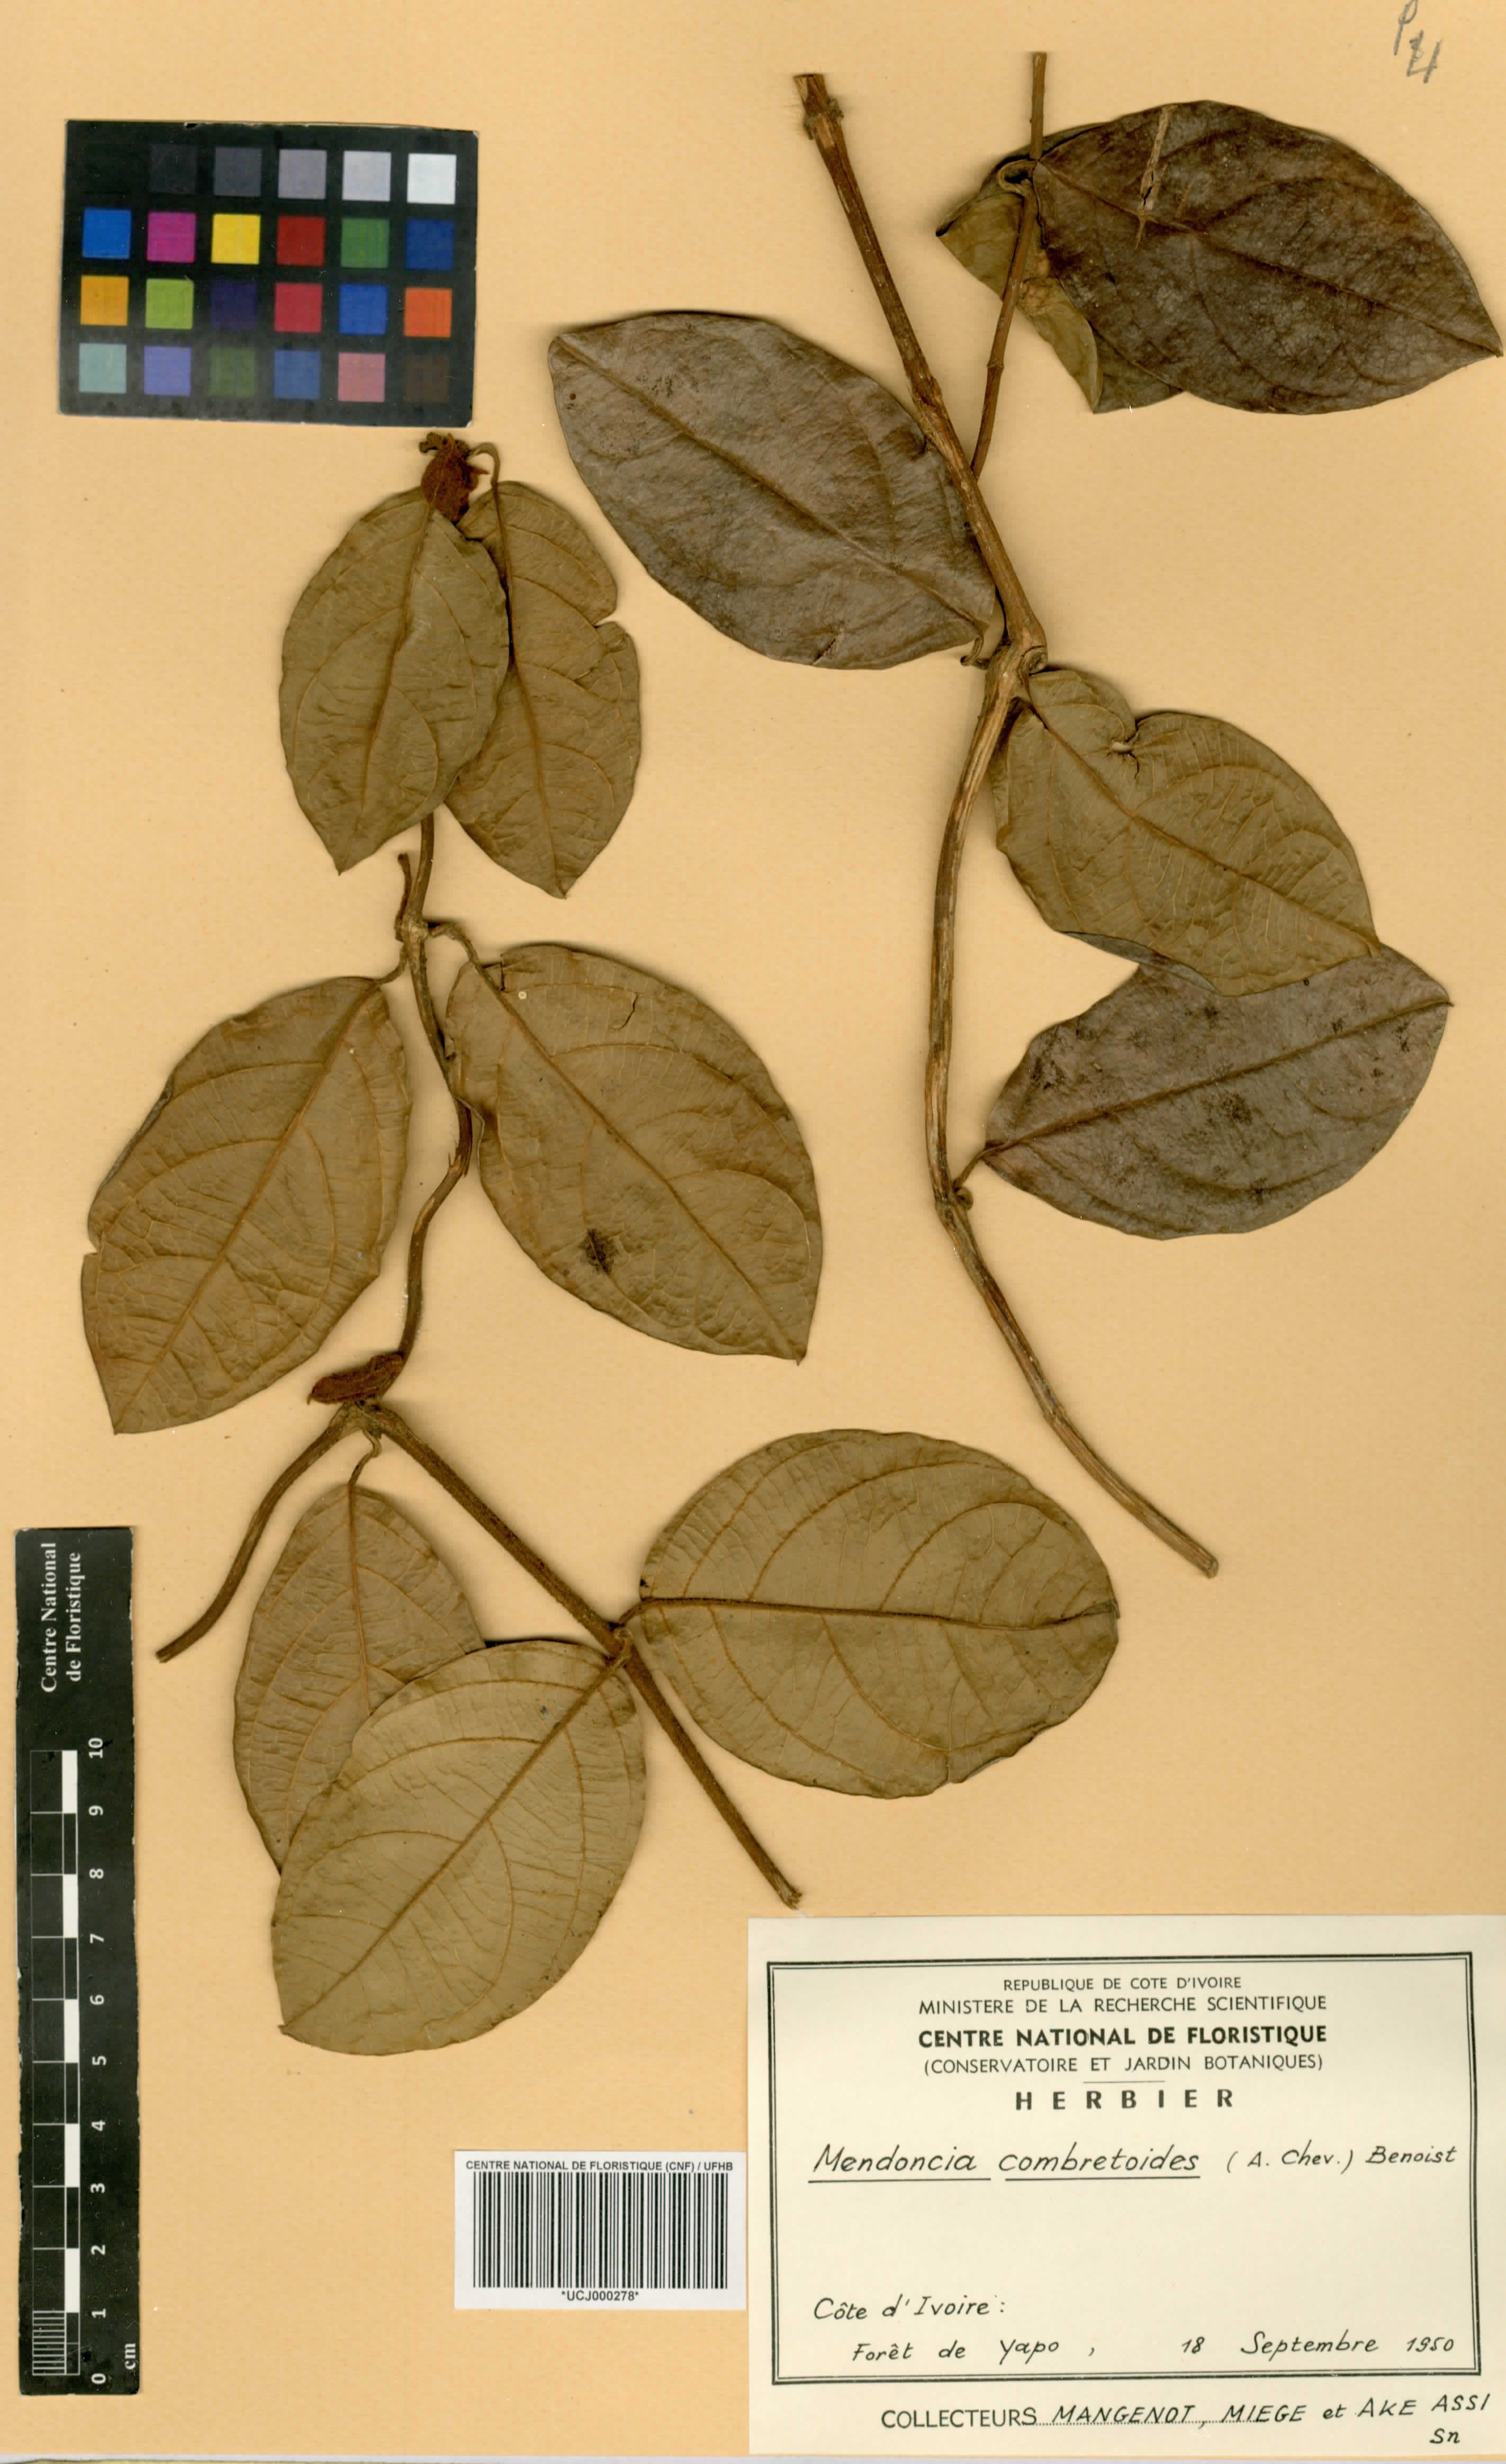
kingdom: Plantae
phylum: Tracheophyta
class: Magnoliopsida
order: Lamiales
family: Acanthaceae
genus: Mendoncia
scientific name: Mendoncia combretoides
